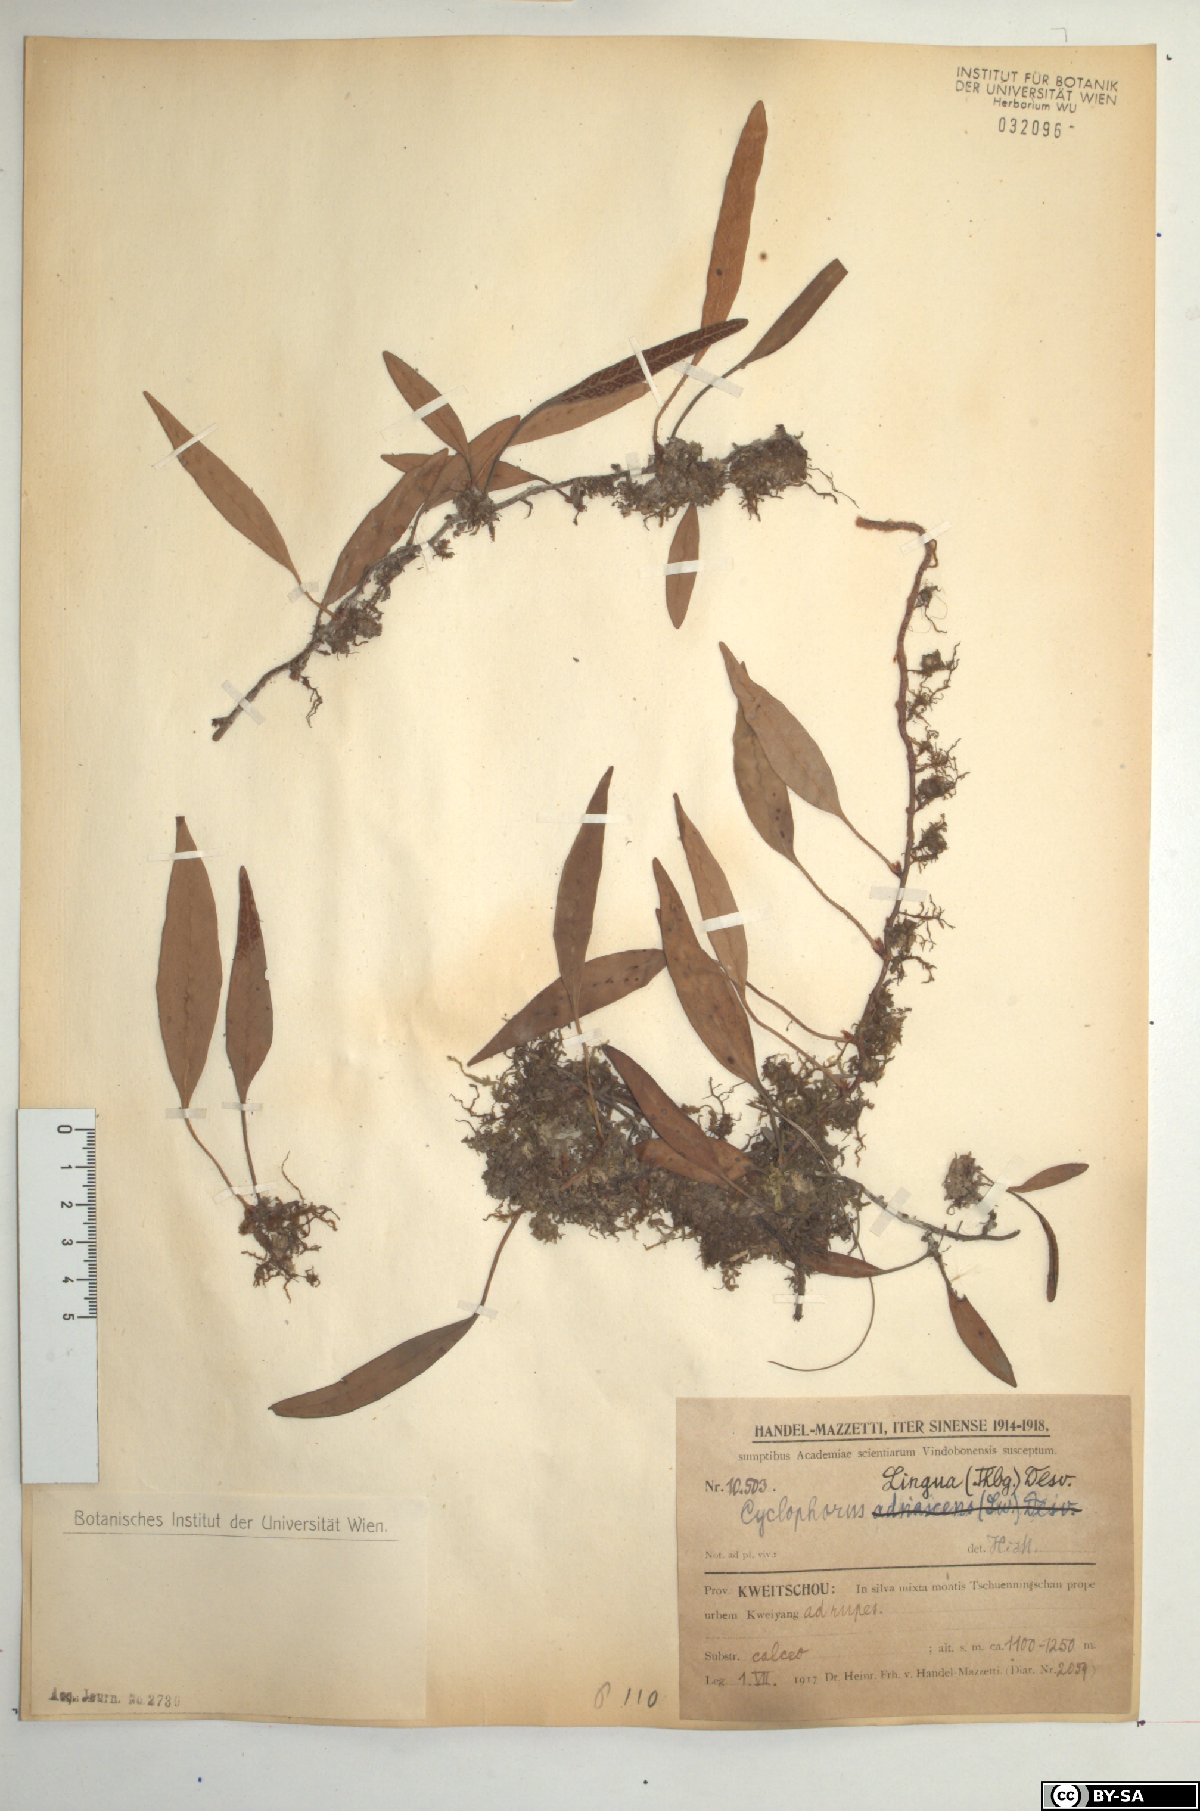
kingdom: Plantae
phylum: Tracheophyta
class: Polypodiopsida
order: Polypodiales
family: Polypodiaceae
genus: Pyrrosia
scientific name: Pyrrosia lingua
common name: Felt fern
